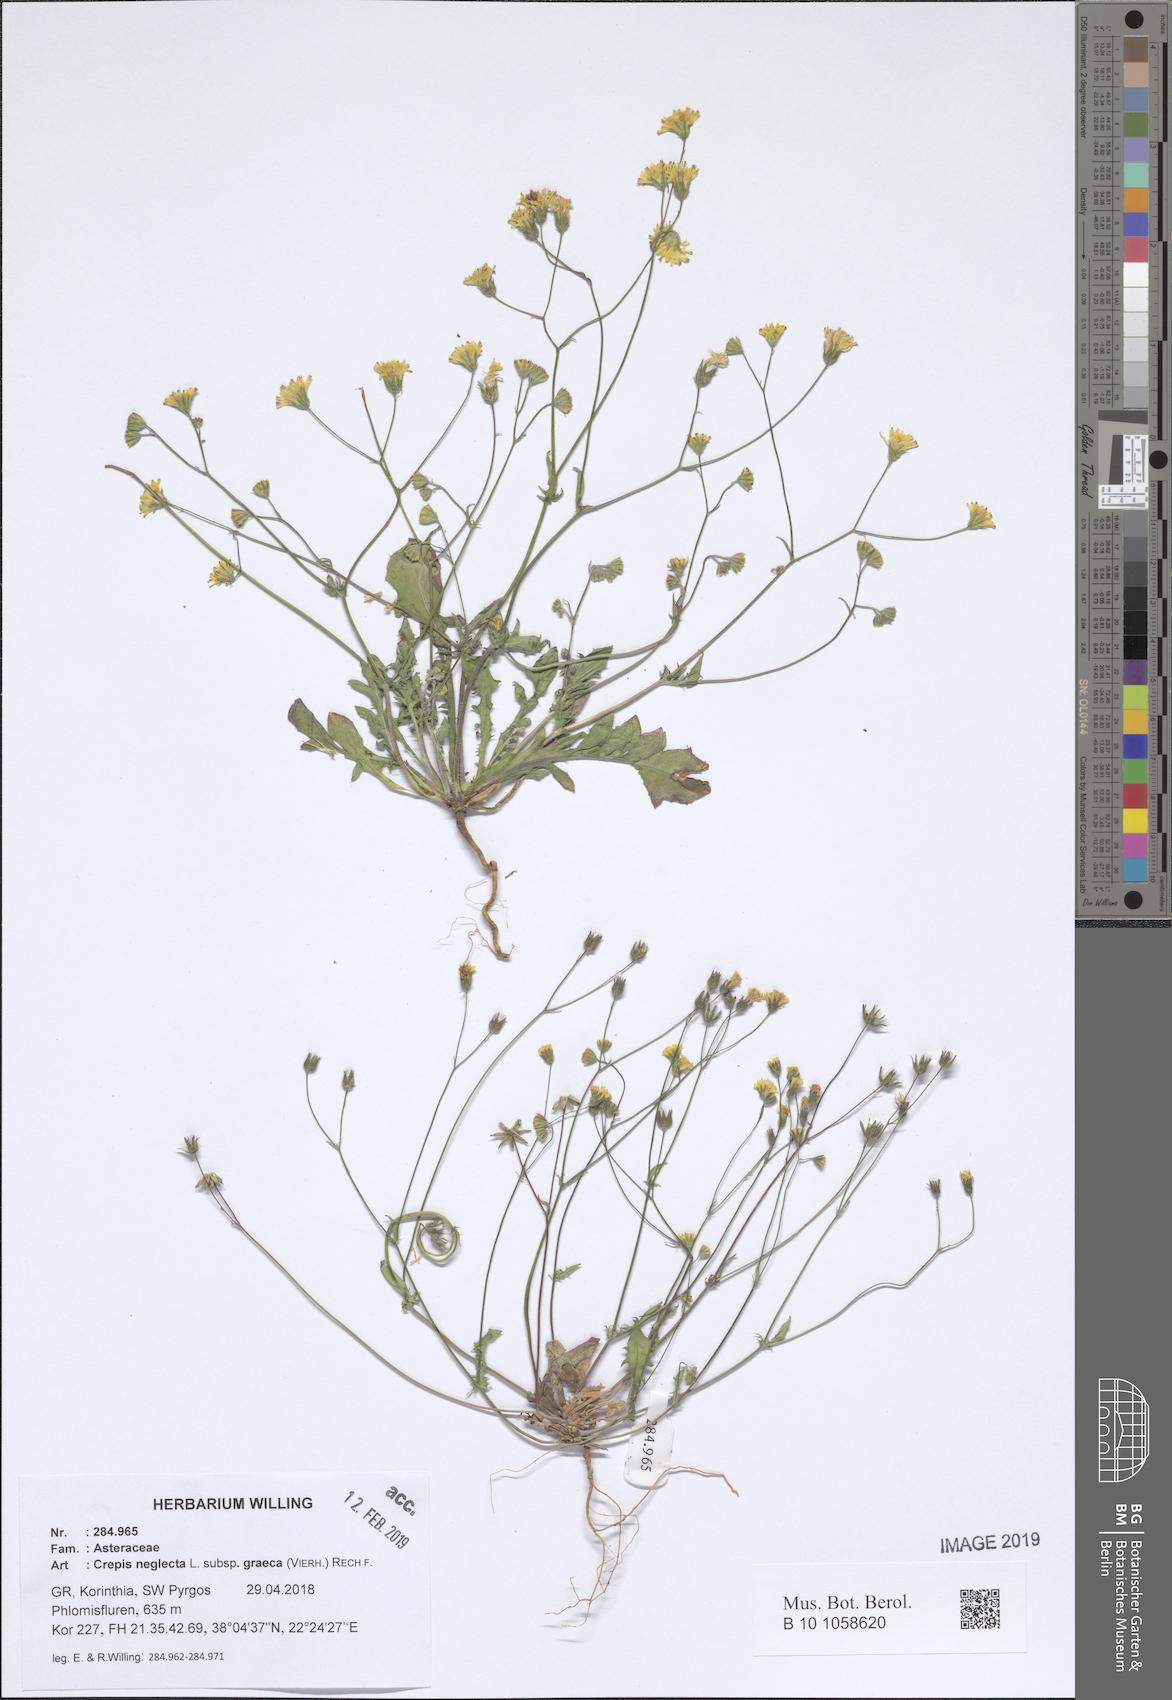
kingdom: Plantae
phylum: Tracheophyta
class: Magnoliopsida
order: Asterales
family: Asteraceae
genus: Crepis
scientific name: Crepis neglecta
